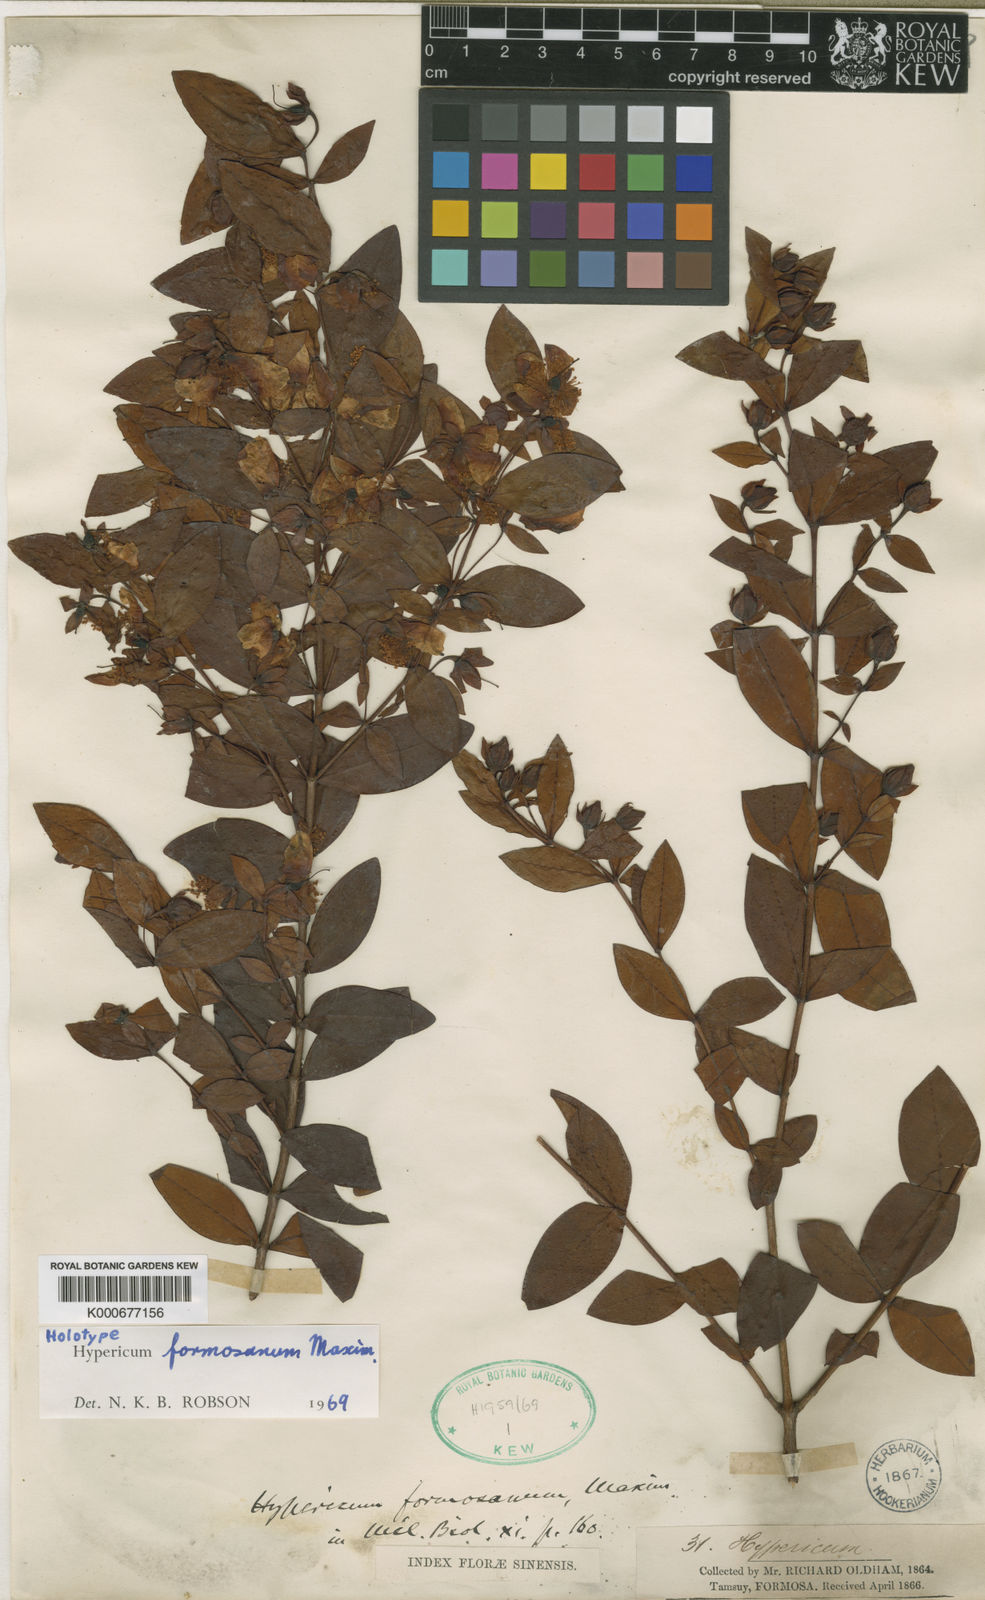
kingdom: Plantae
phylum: Tracheophyta
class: Magnoliopsida
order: Malpighiales
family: Hypericaceae
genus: Hypericum
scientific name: Hypericum formosanum
